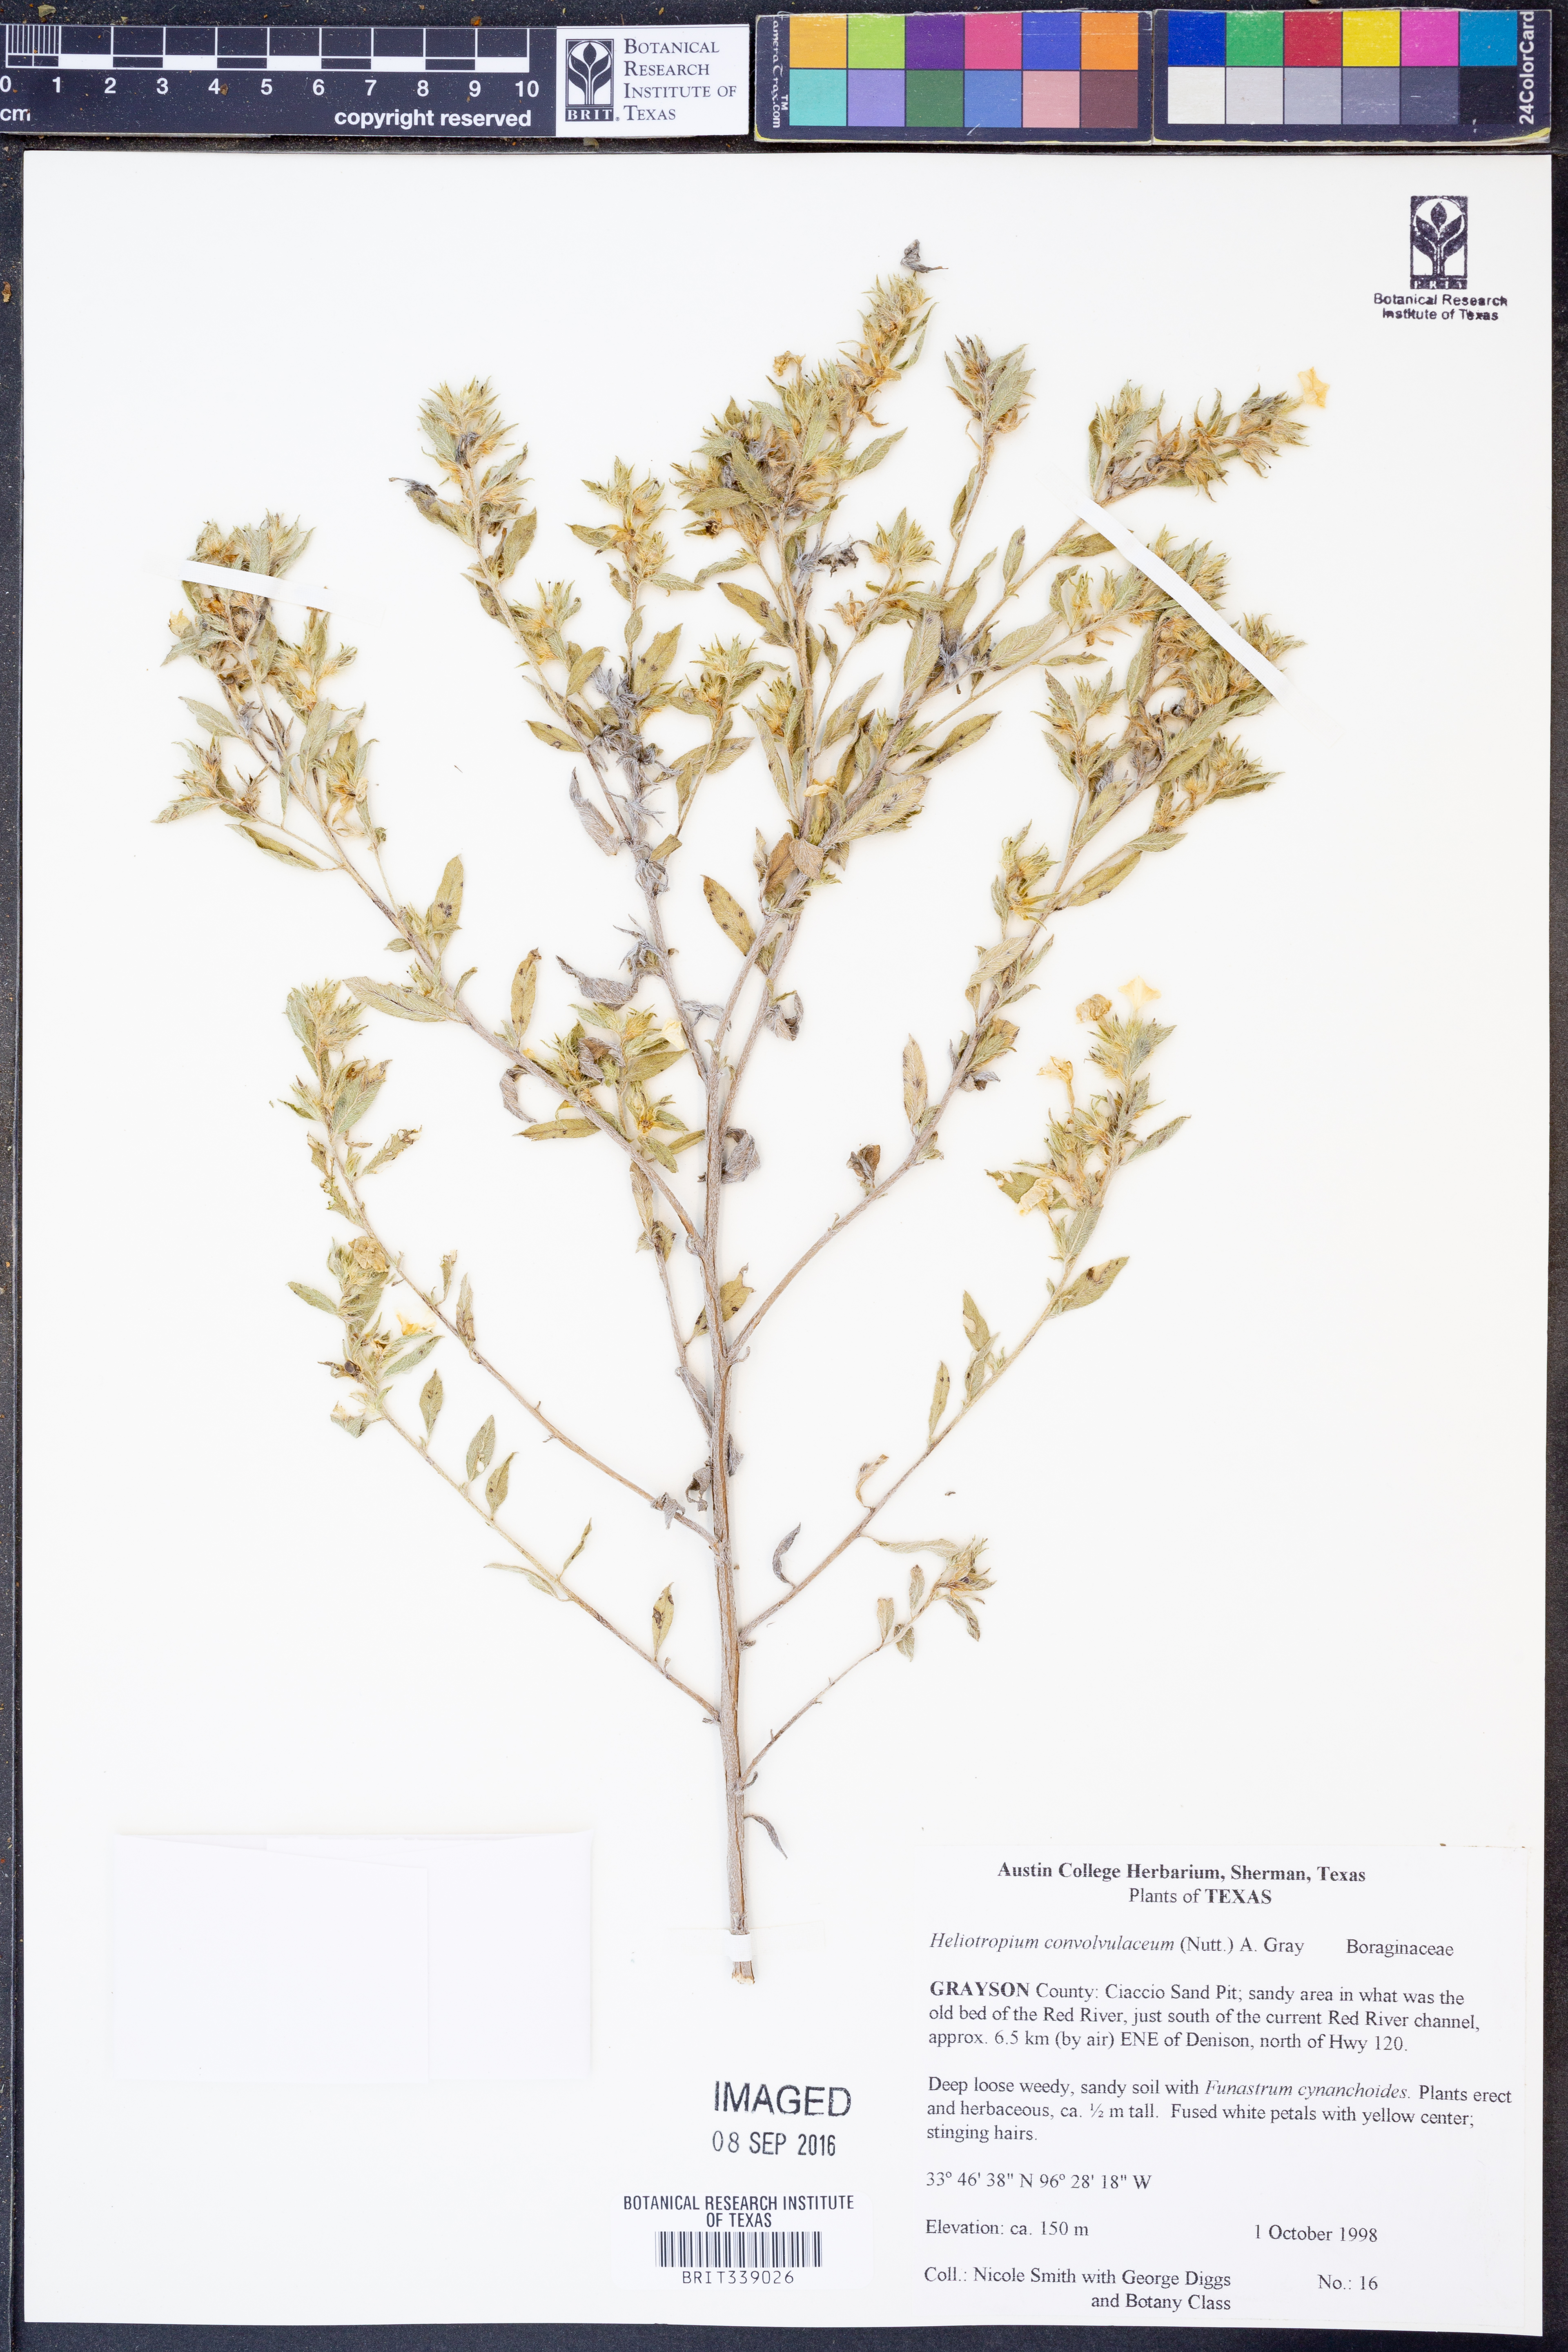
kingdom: Plantae
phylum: Tracheophyta
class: Magnoliopsida
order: Boraginales
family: Heliotropiaceae
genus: Euploca
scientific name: Euploca convolvulacea
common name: Bindweed heliotrope
